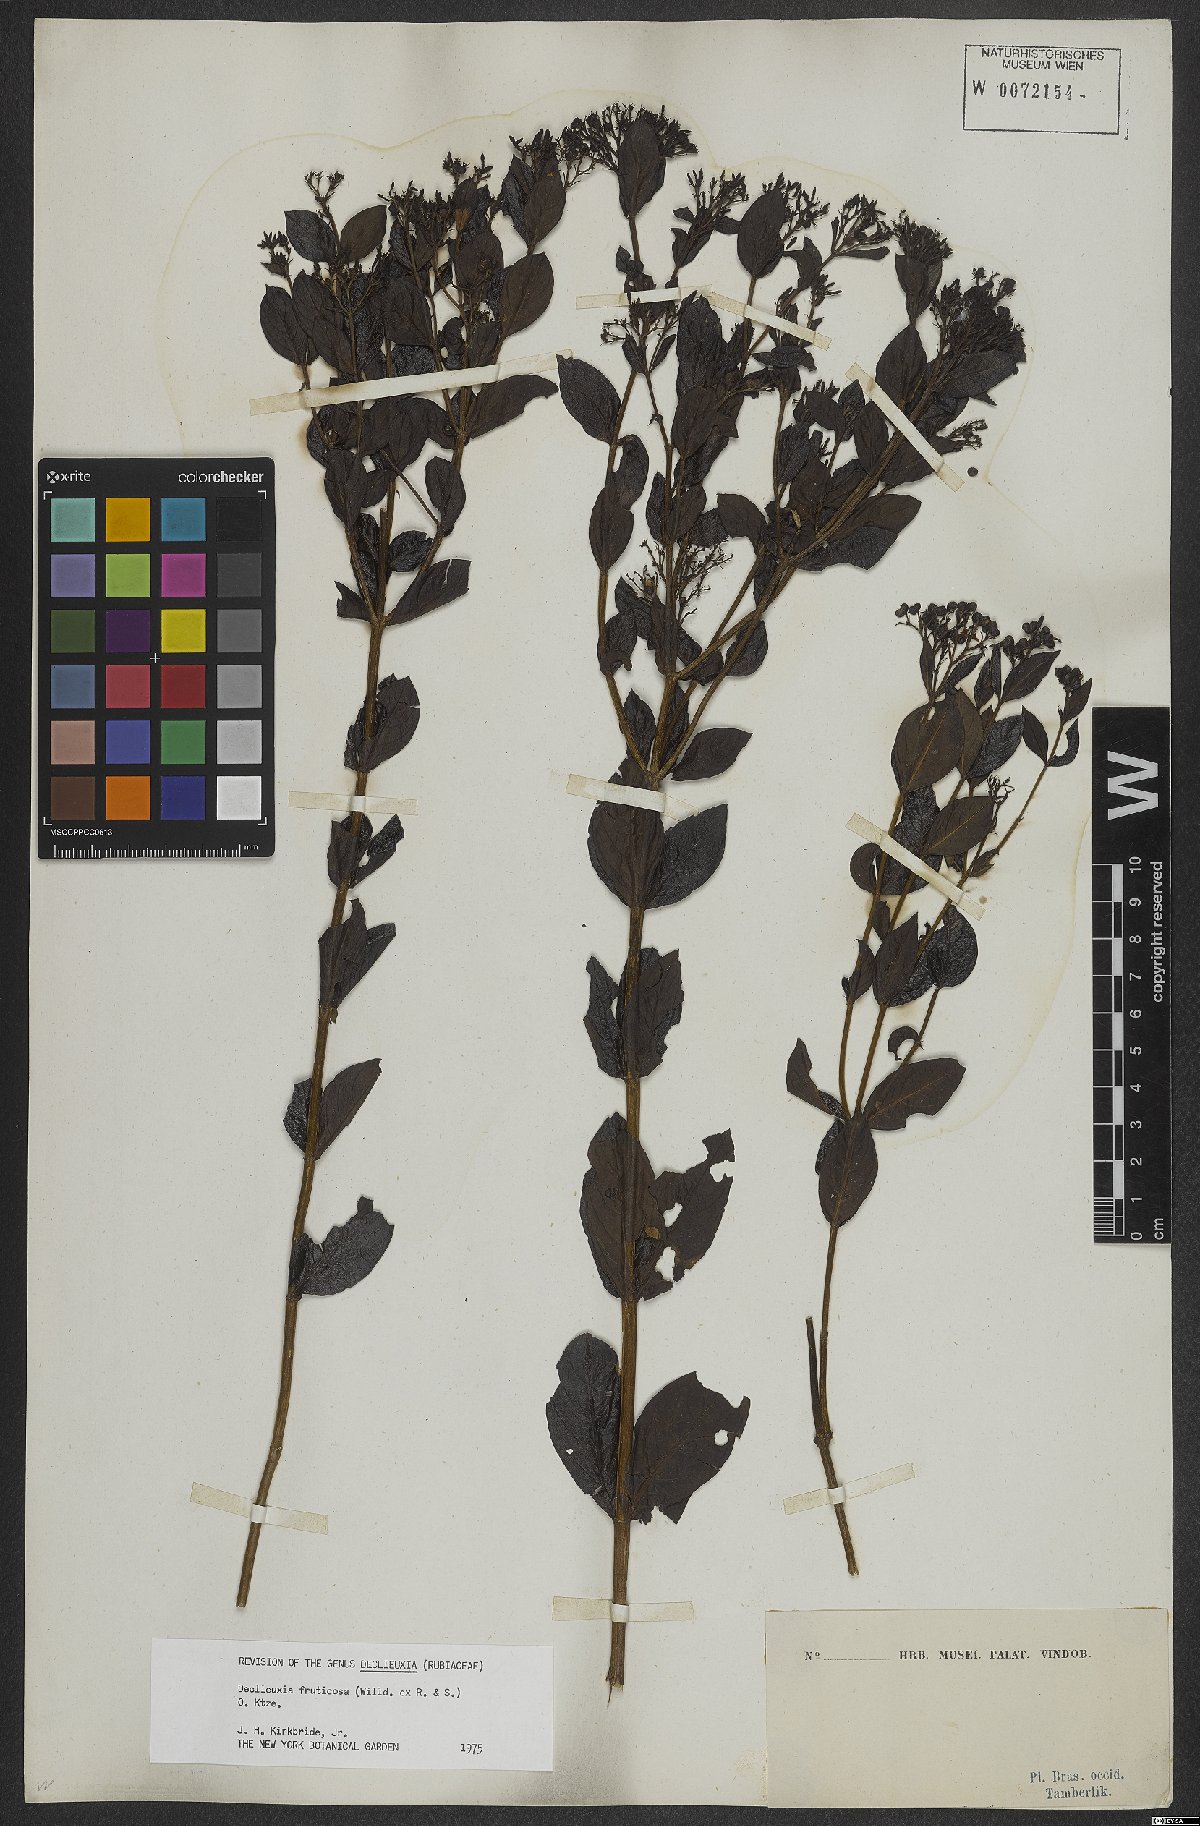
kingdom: Plantae
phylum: Tracheophyta
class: Magnoliopsida
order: Gentianales
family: Rubiaceae
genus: Declieuxia
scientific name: Declieuxia fruticosa
